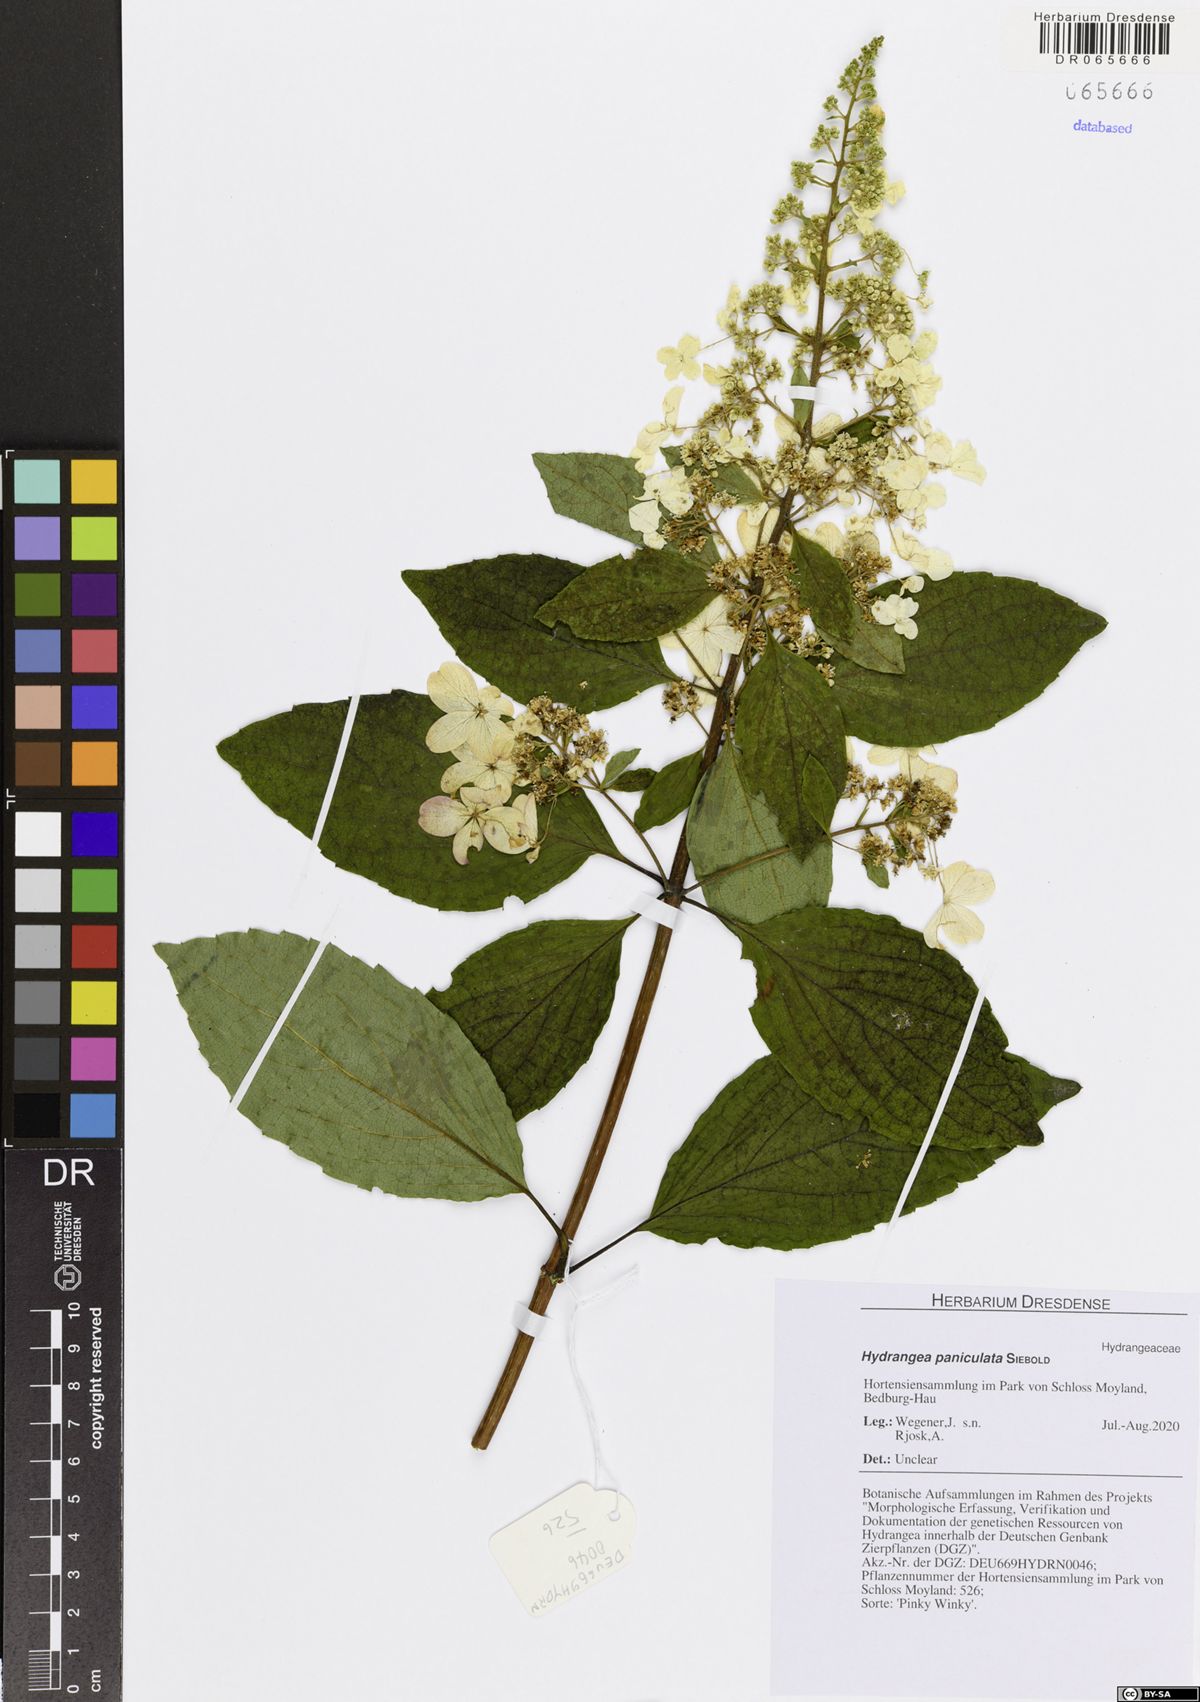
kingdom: Plantae
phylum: Tracheophyta
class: Magnoliopsida
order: Cornales
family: Hydrangeaceae
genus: Hydrangea
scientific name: Hydrangea paniculata
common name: Panicled hydrangea
